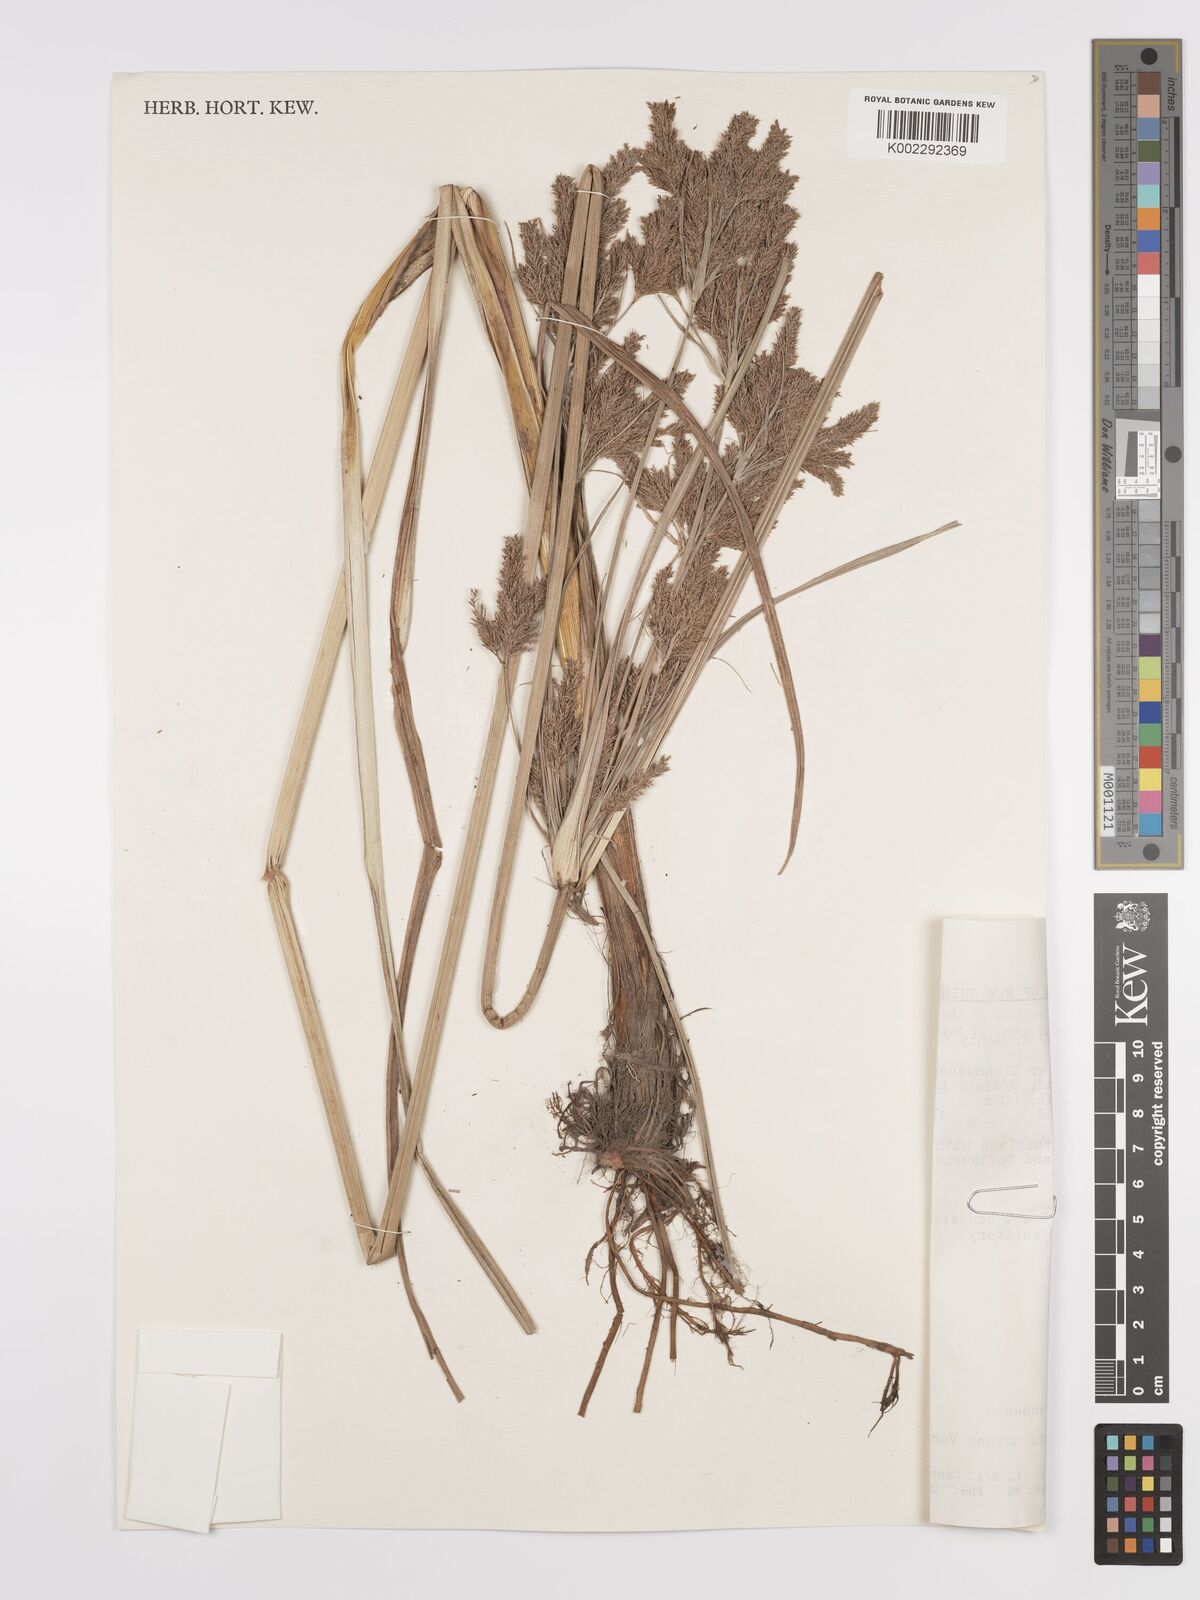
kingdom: Plantae
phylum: Tracheophyta
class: Liliopsida
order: Poales
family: Cyperaceae
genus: Cyperus
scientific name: Cyperus nutans
